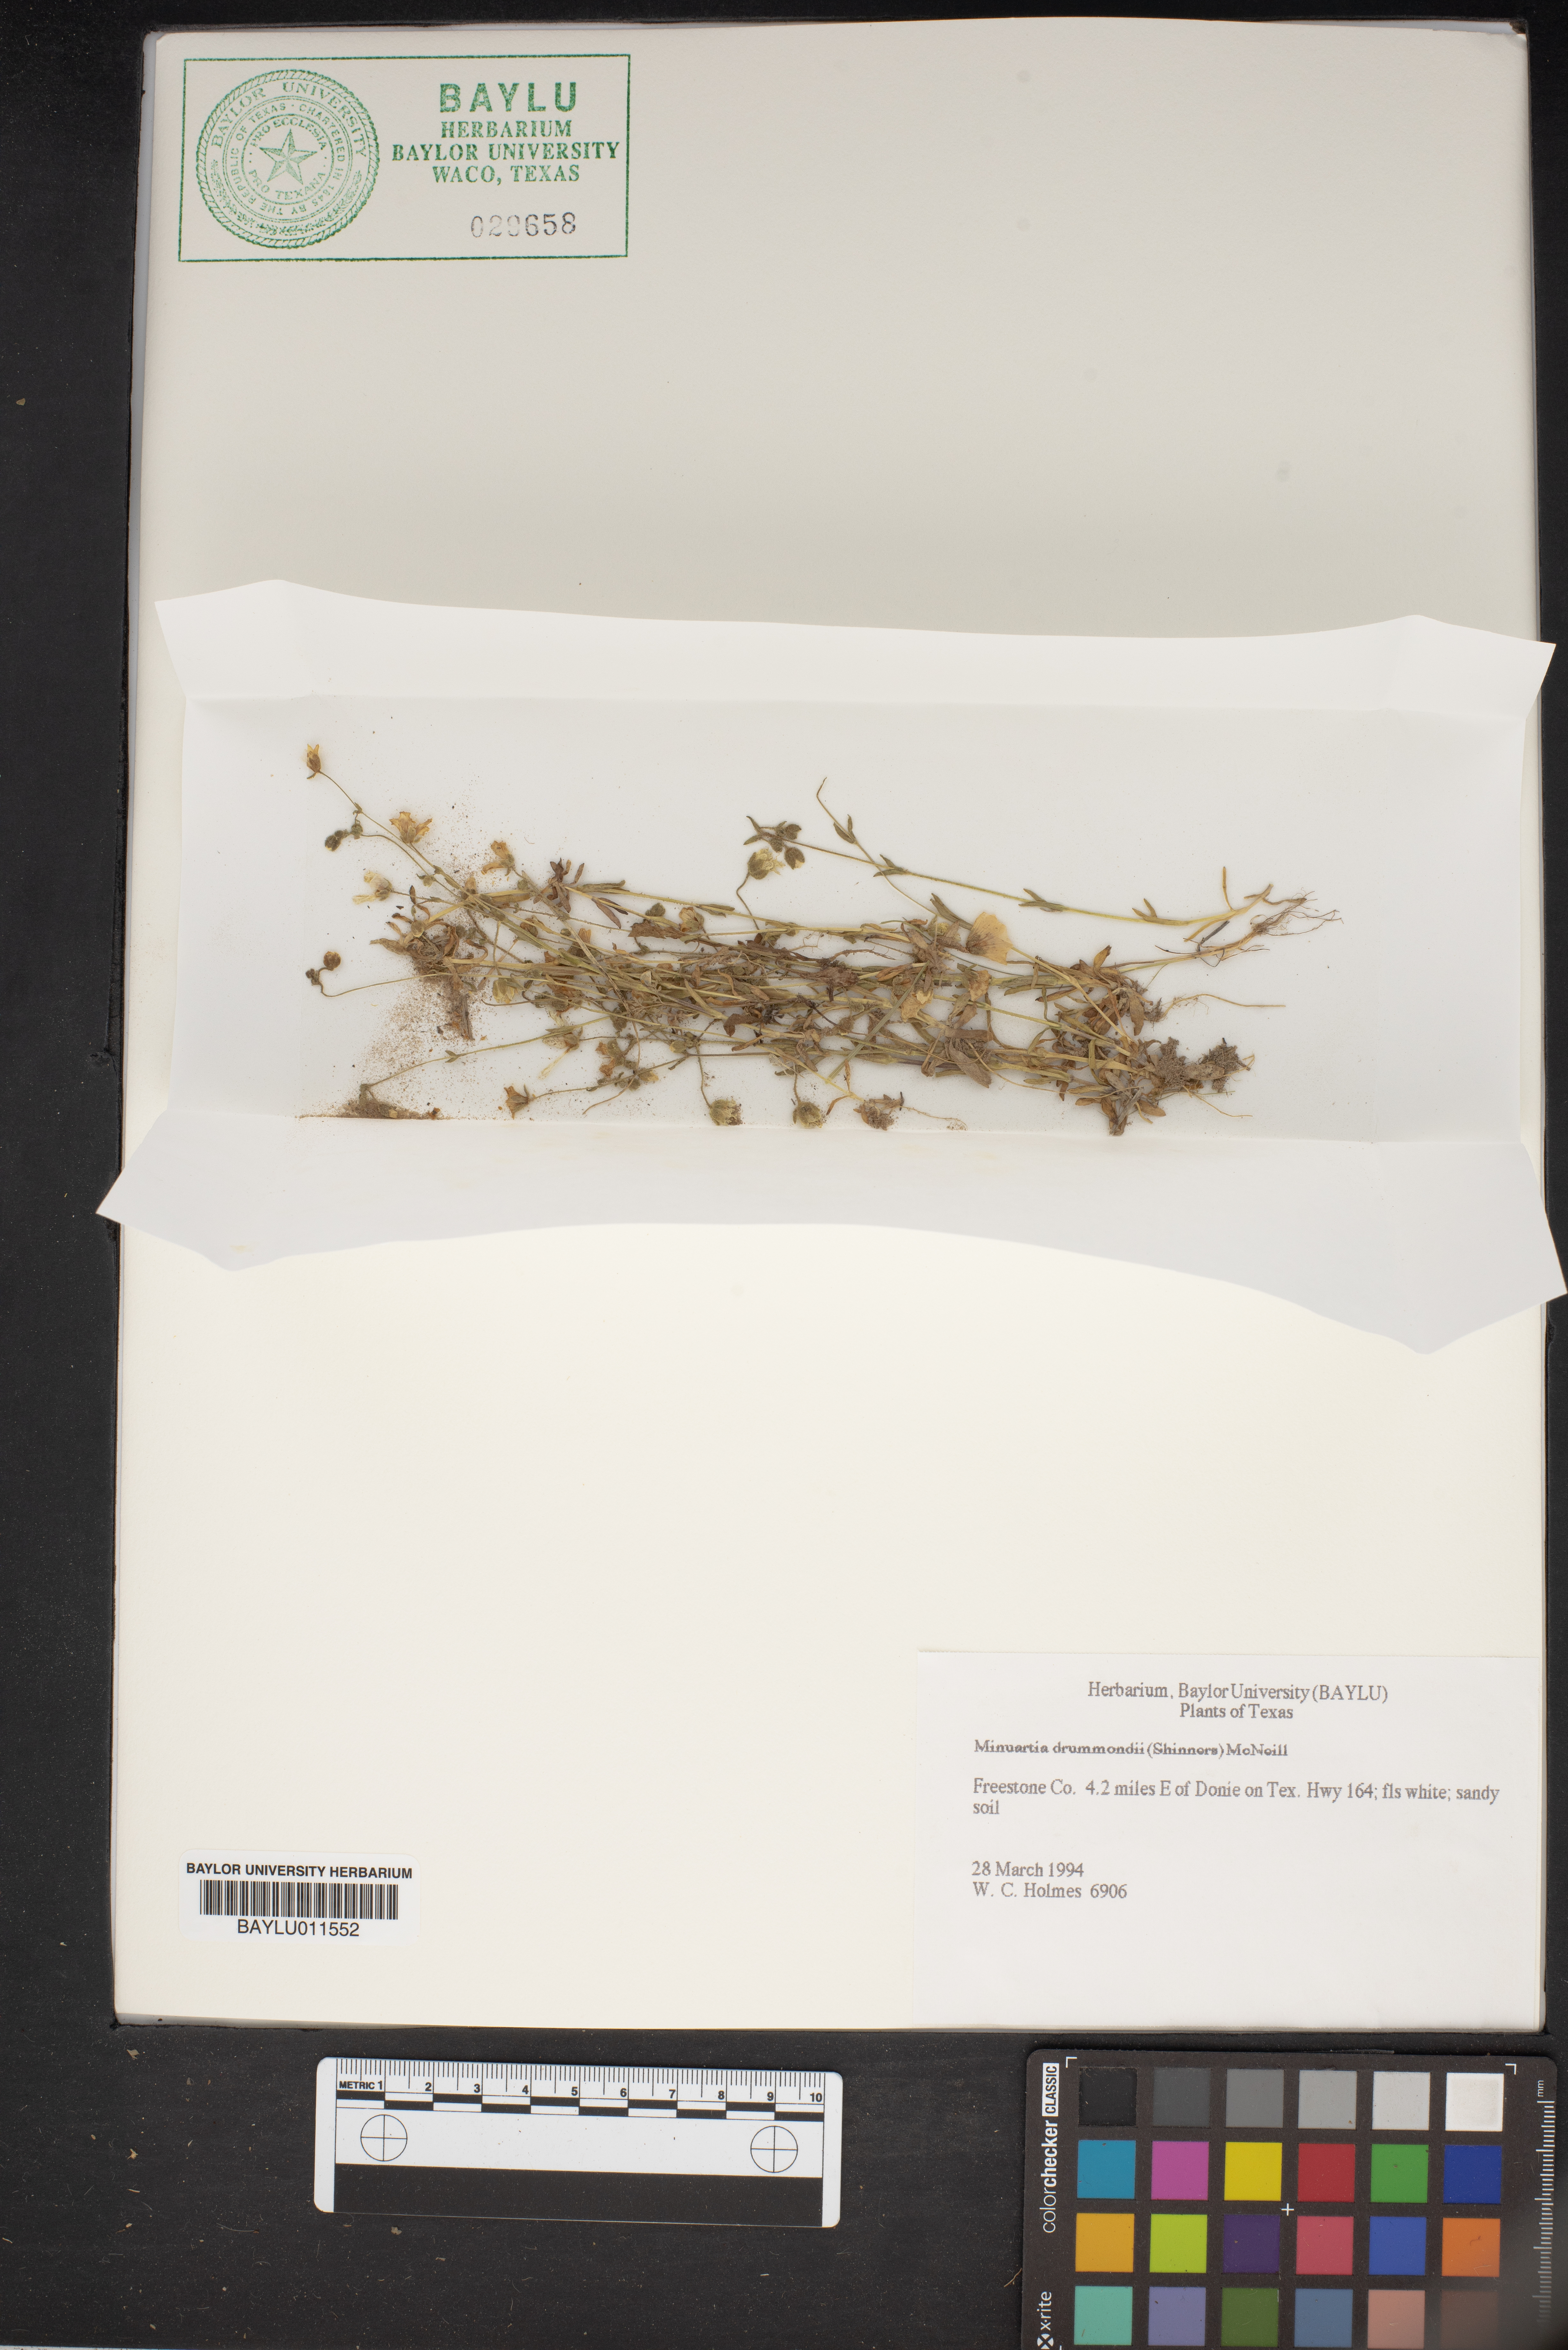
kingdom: Plantae
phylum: Tracheophyta
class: Magnoliopsida
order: Caryophyllales
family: Caryophyllaceae
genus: Geocarpon
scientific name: Geocarpon nuttallii
